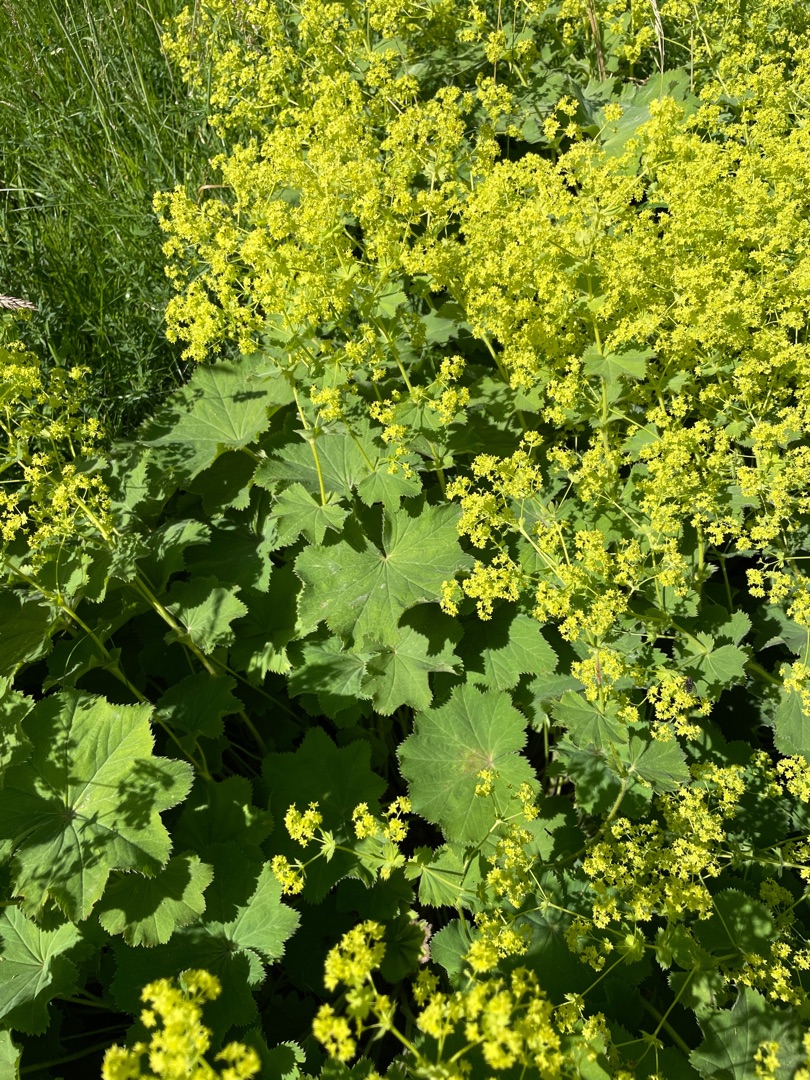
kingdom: Plantae
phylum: Tracheophyta
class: Magnoliopsida
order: Rosales
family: Rosaceae
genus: Alchemilla
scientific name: Alchemilla mollis
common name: Lådden løvefod
